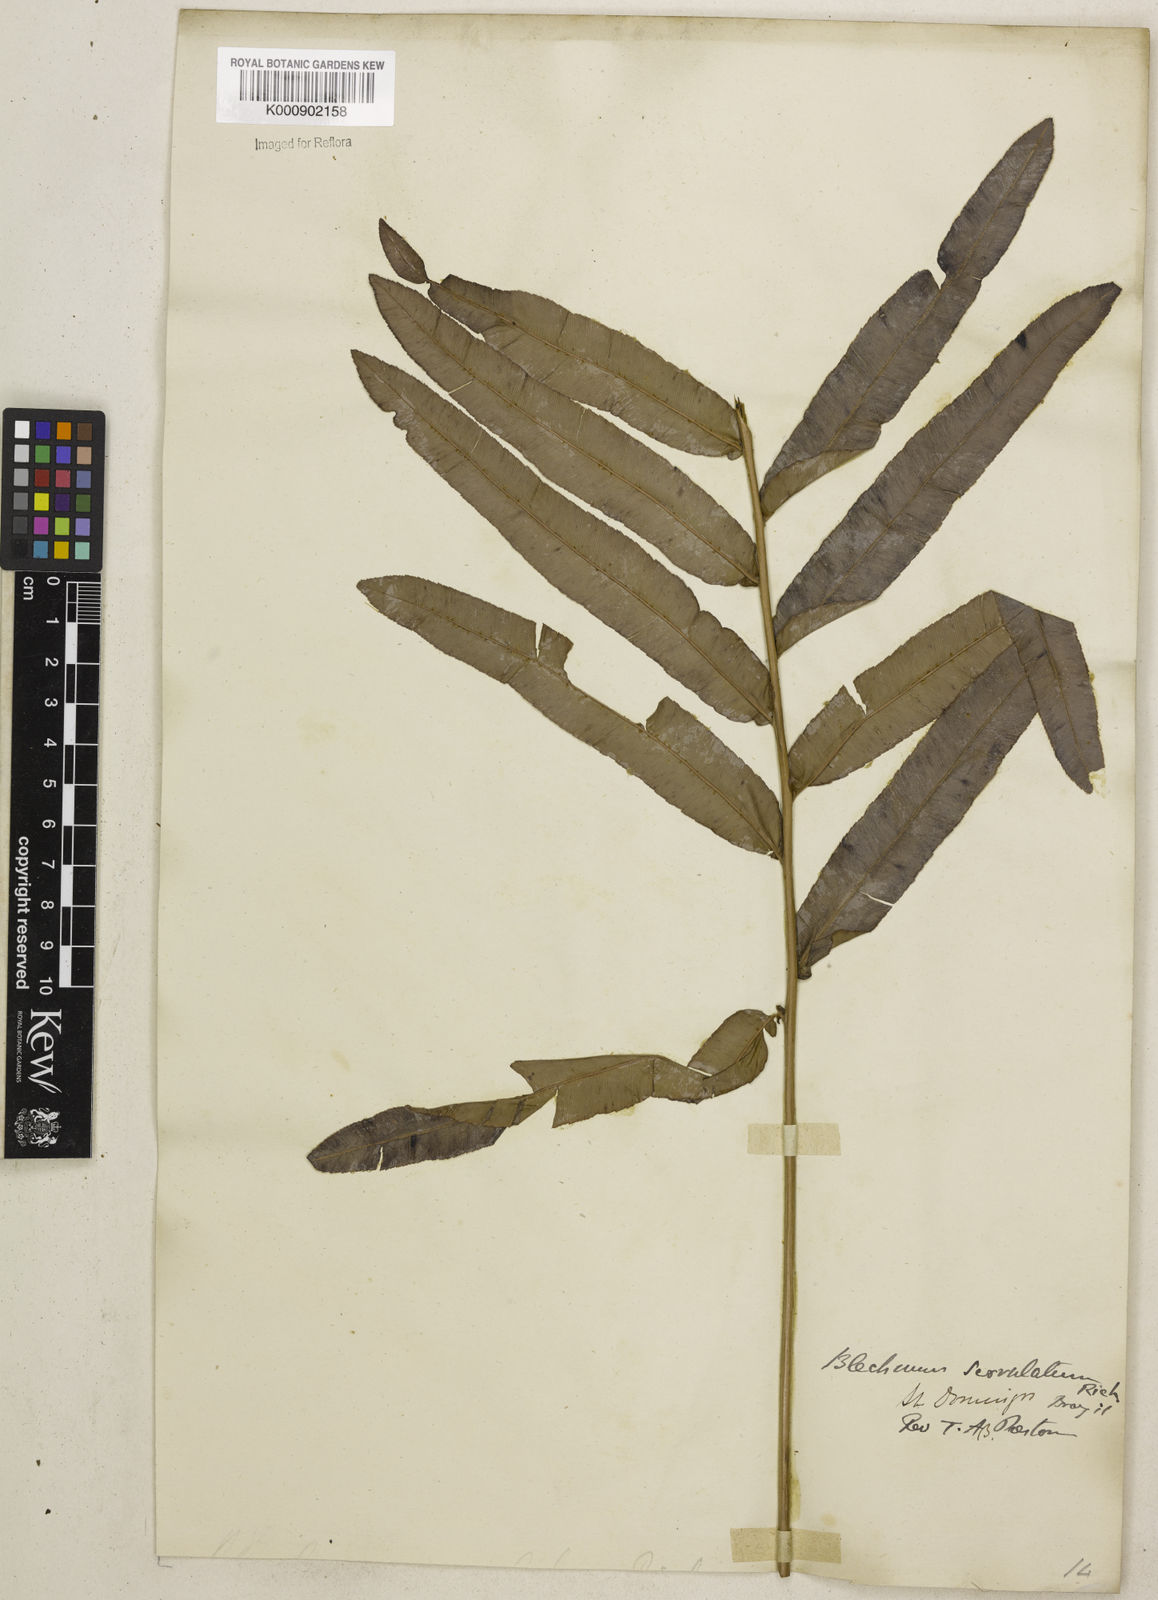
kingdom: Plantae
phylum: Tracheophyta
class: Polypodiopsida
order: Polypodiales
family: Blechnaceae
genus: Telmatoblechnum
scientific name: Telmatoblechnum serrulatum
